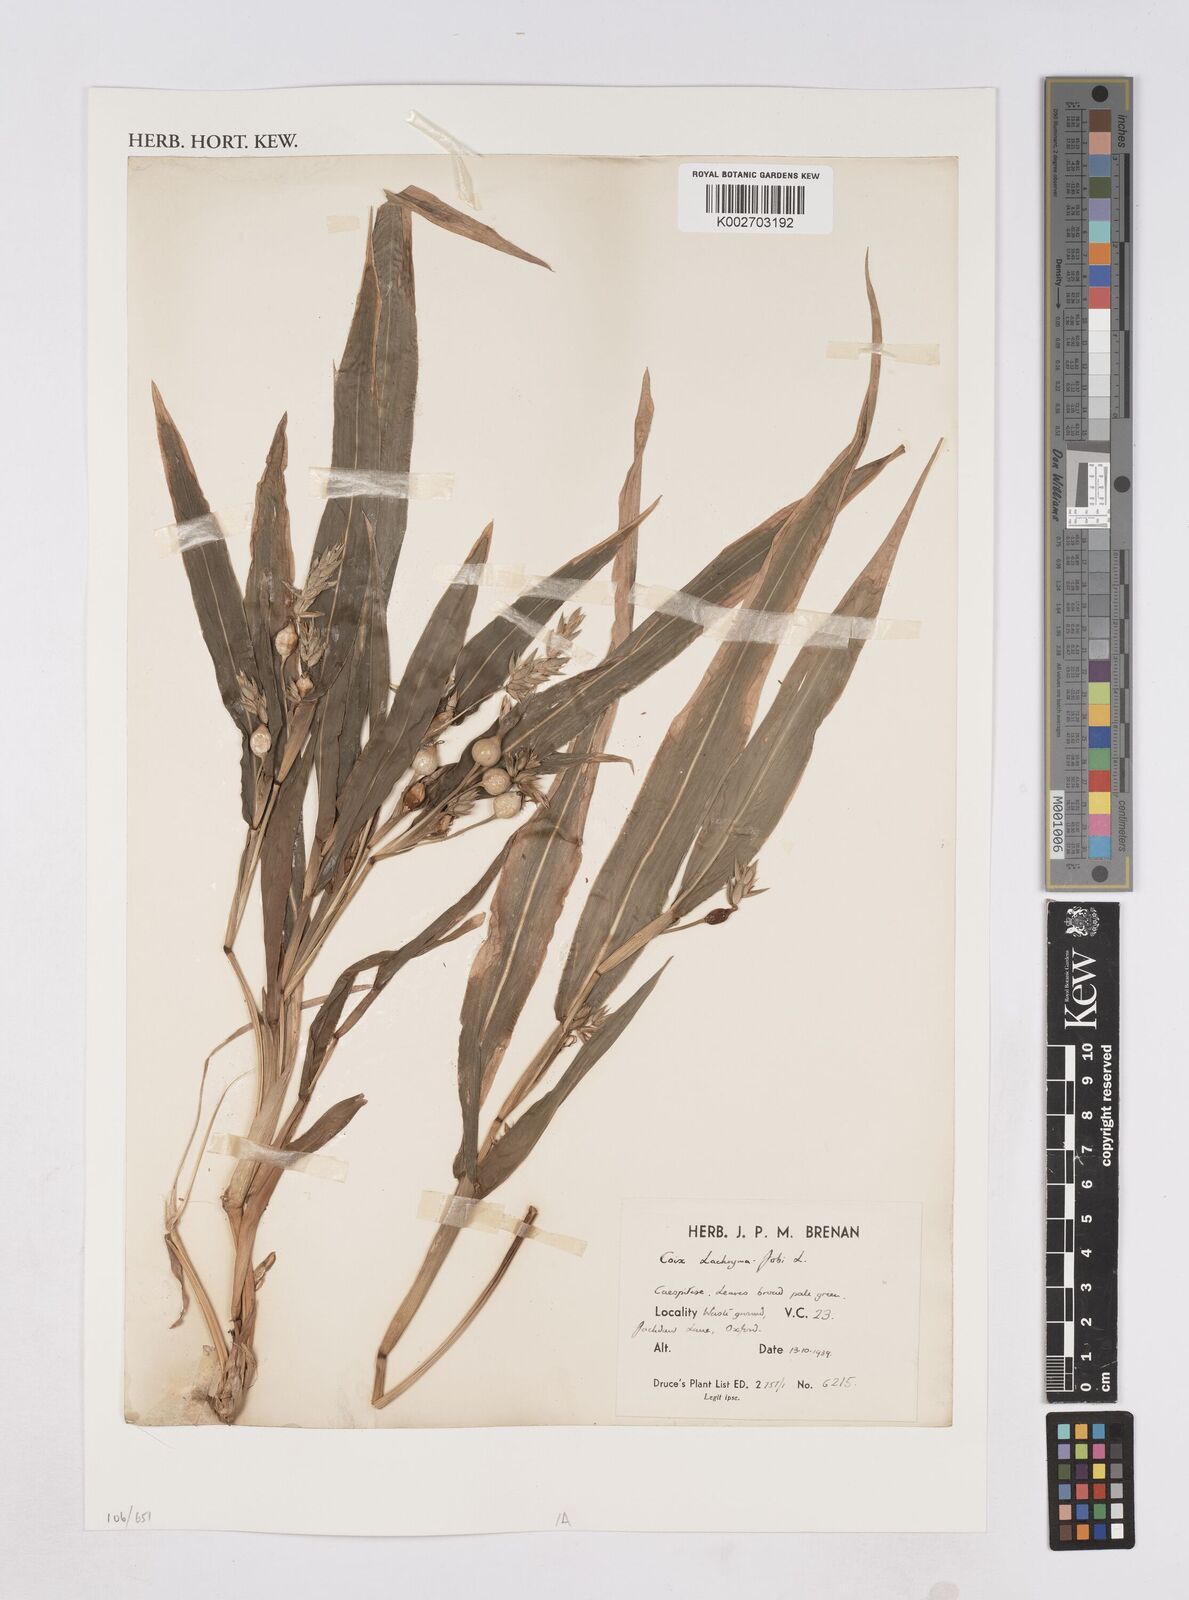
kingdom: Plantae
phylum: Tracheophyta
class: Liliopsida
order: Poales
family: Poaceae
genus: Coix
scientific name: Coix lacryma-jobi
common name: Job's tears
